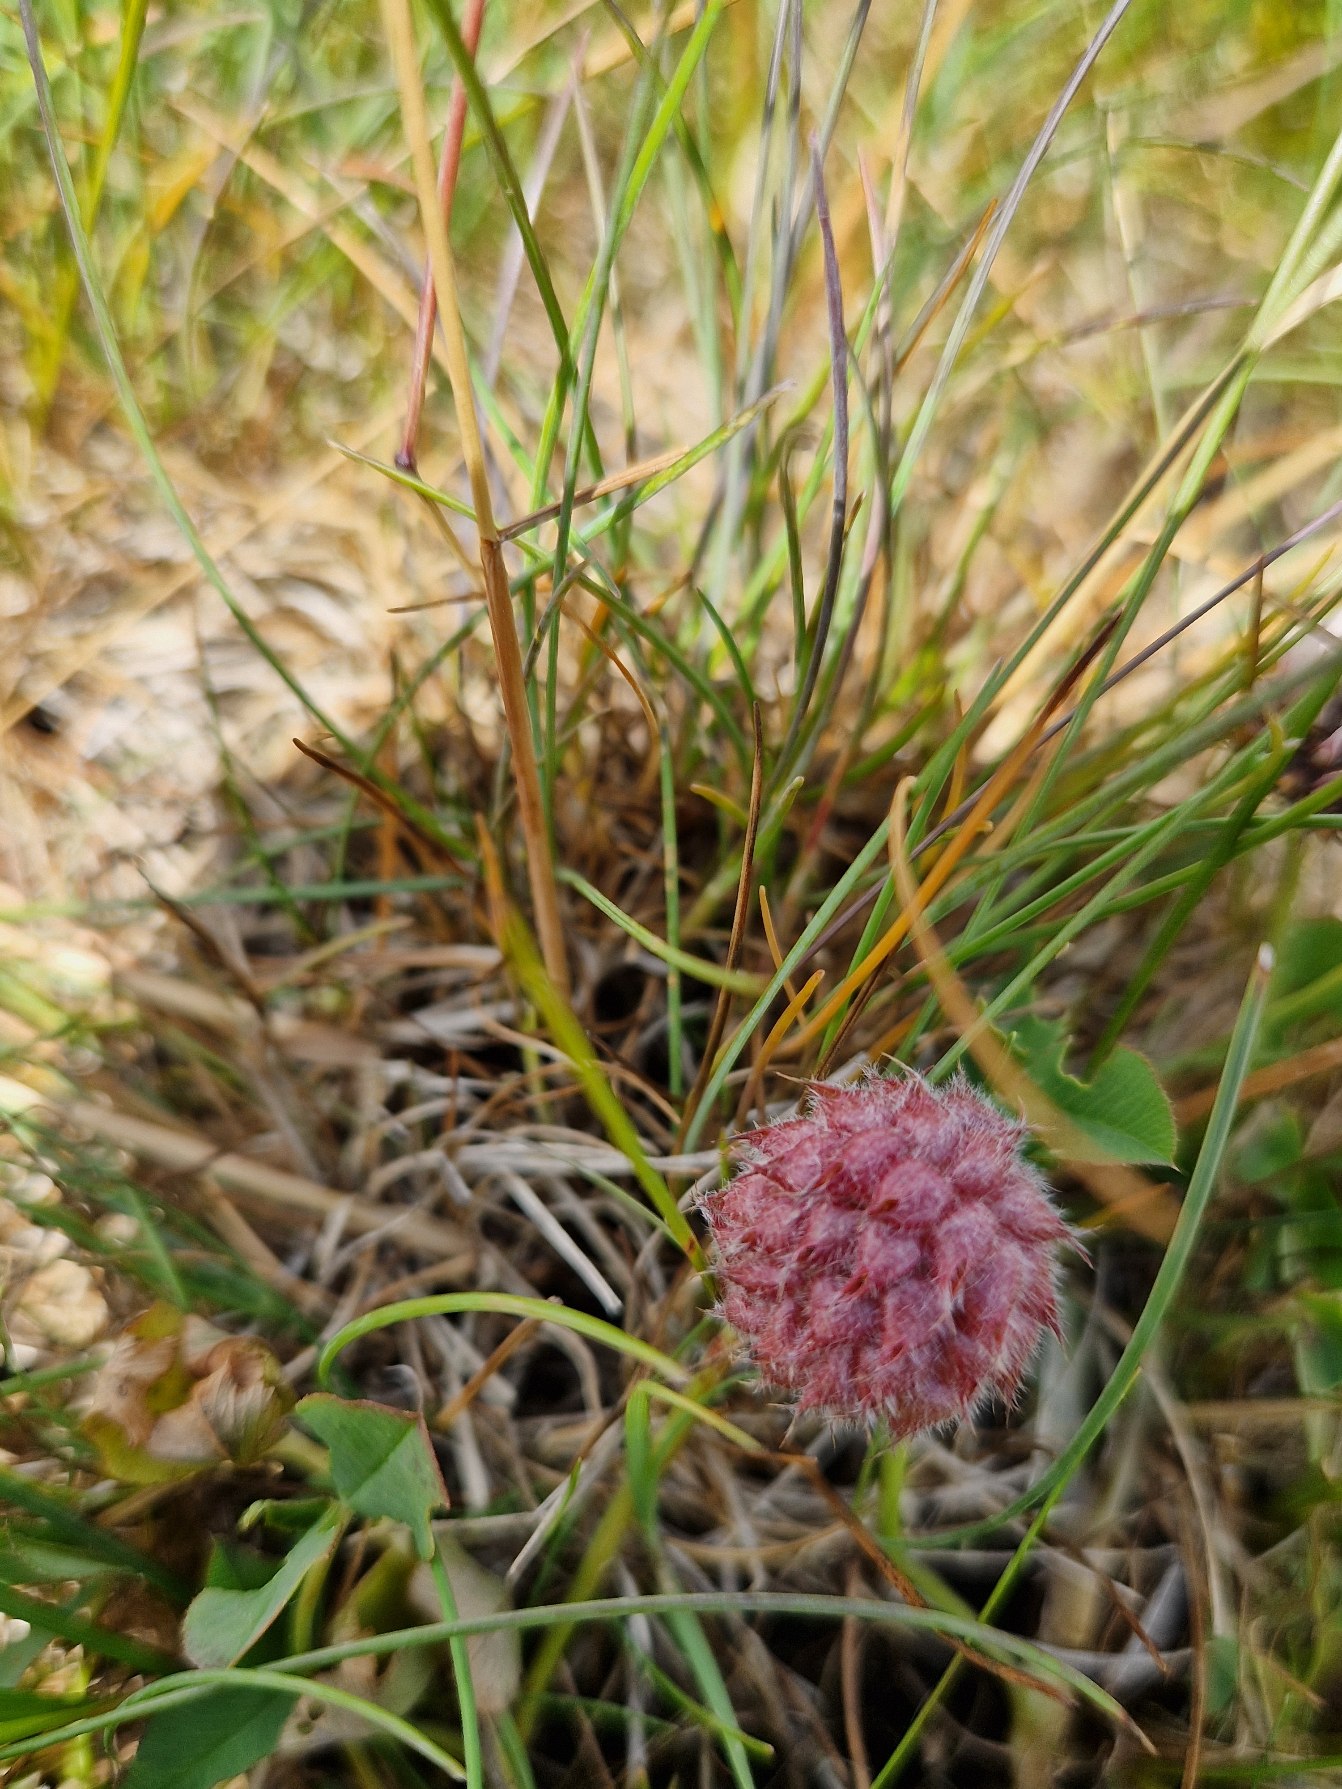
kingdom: Plantae
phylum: Tracheophyta
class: Magnoliopsida
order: Fabales
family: Fabaceae
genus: Trifolium
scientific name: Trifolium fragiferum
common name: Jordbær-kløver
